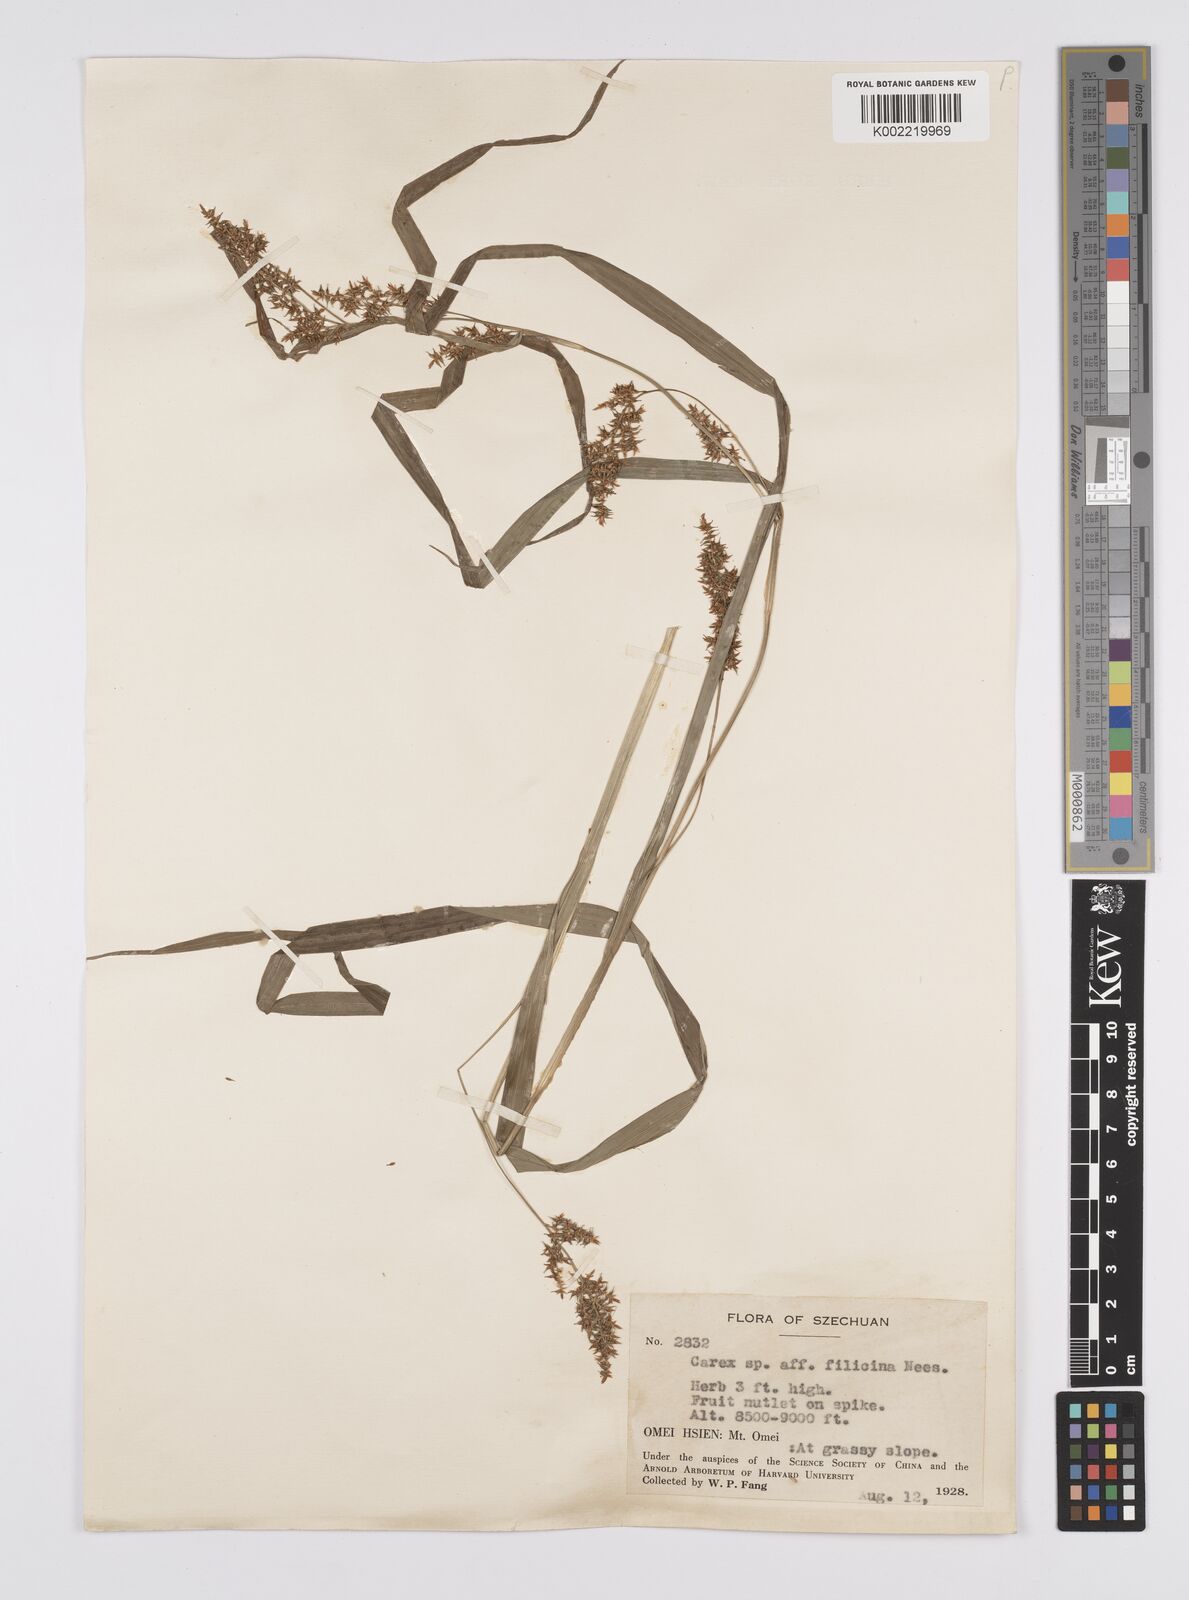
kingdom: Plantae
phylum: Tracheophyta
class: Liliopsida
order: Poales
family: Cyperaceae
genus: Carex
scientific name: Carex filicina
